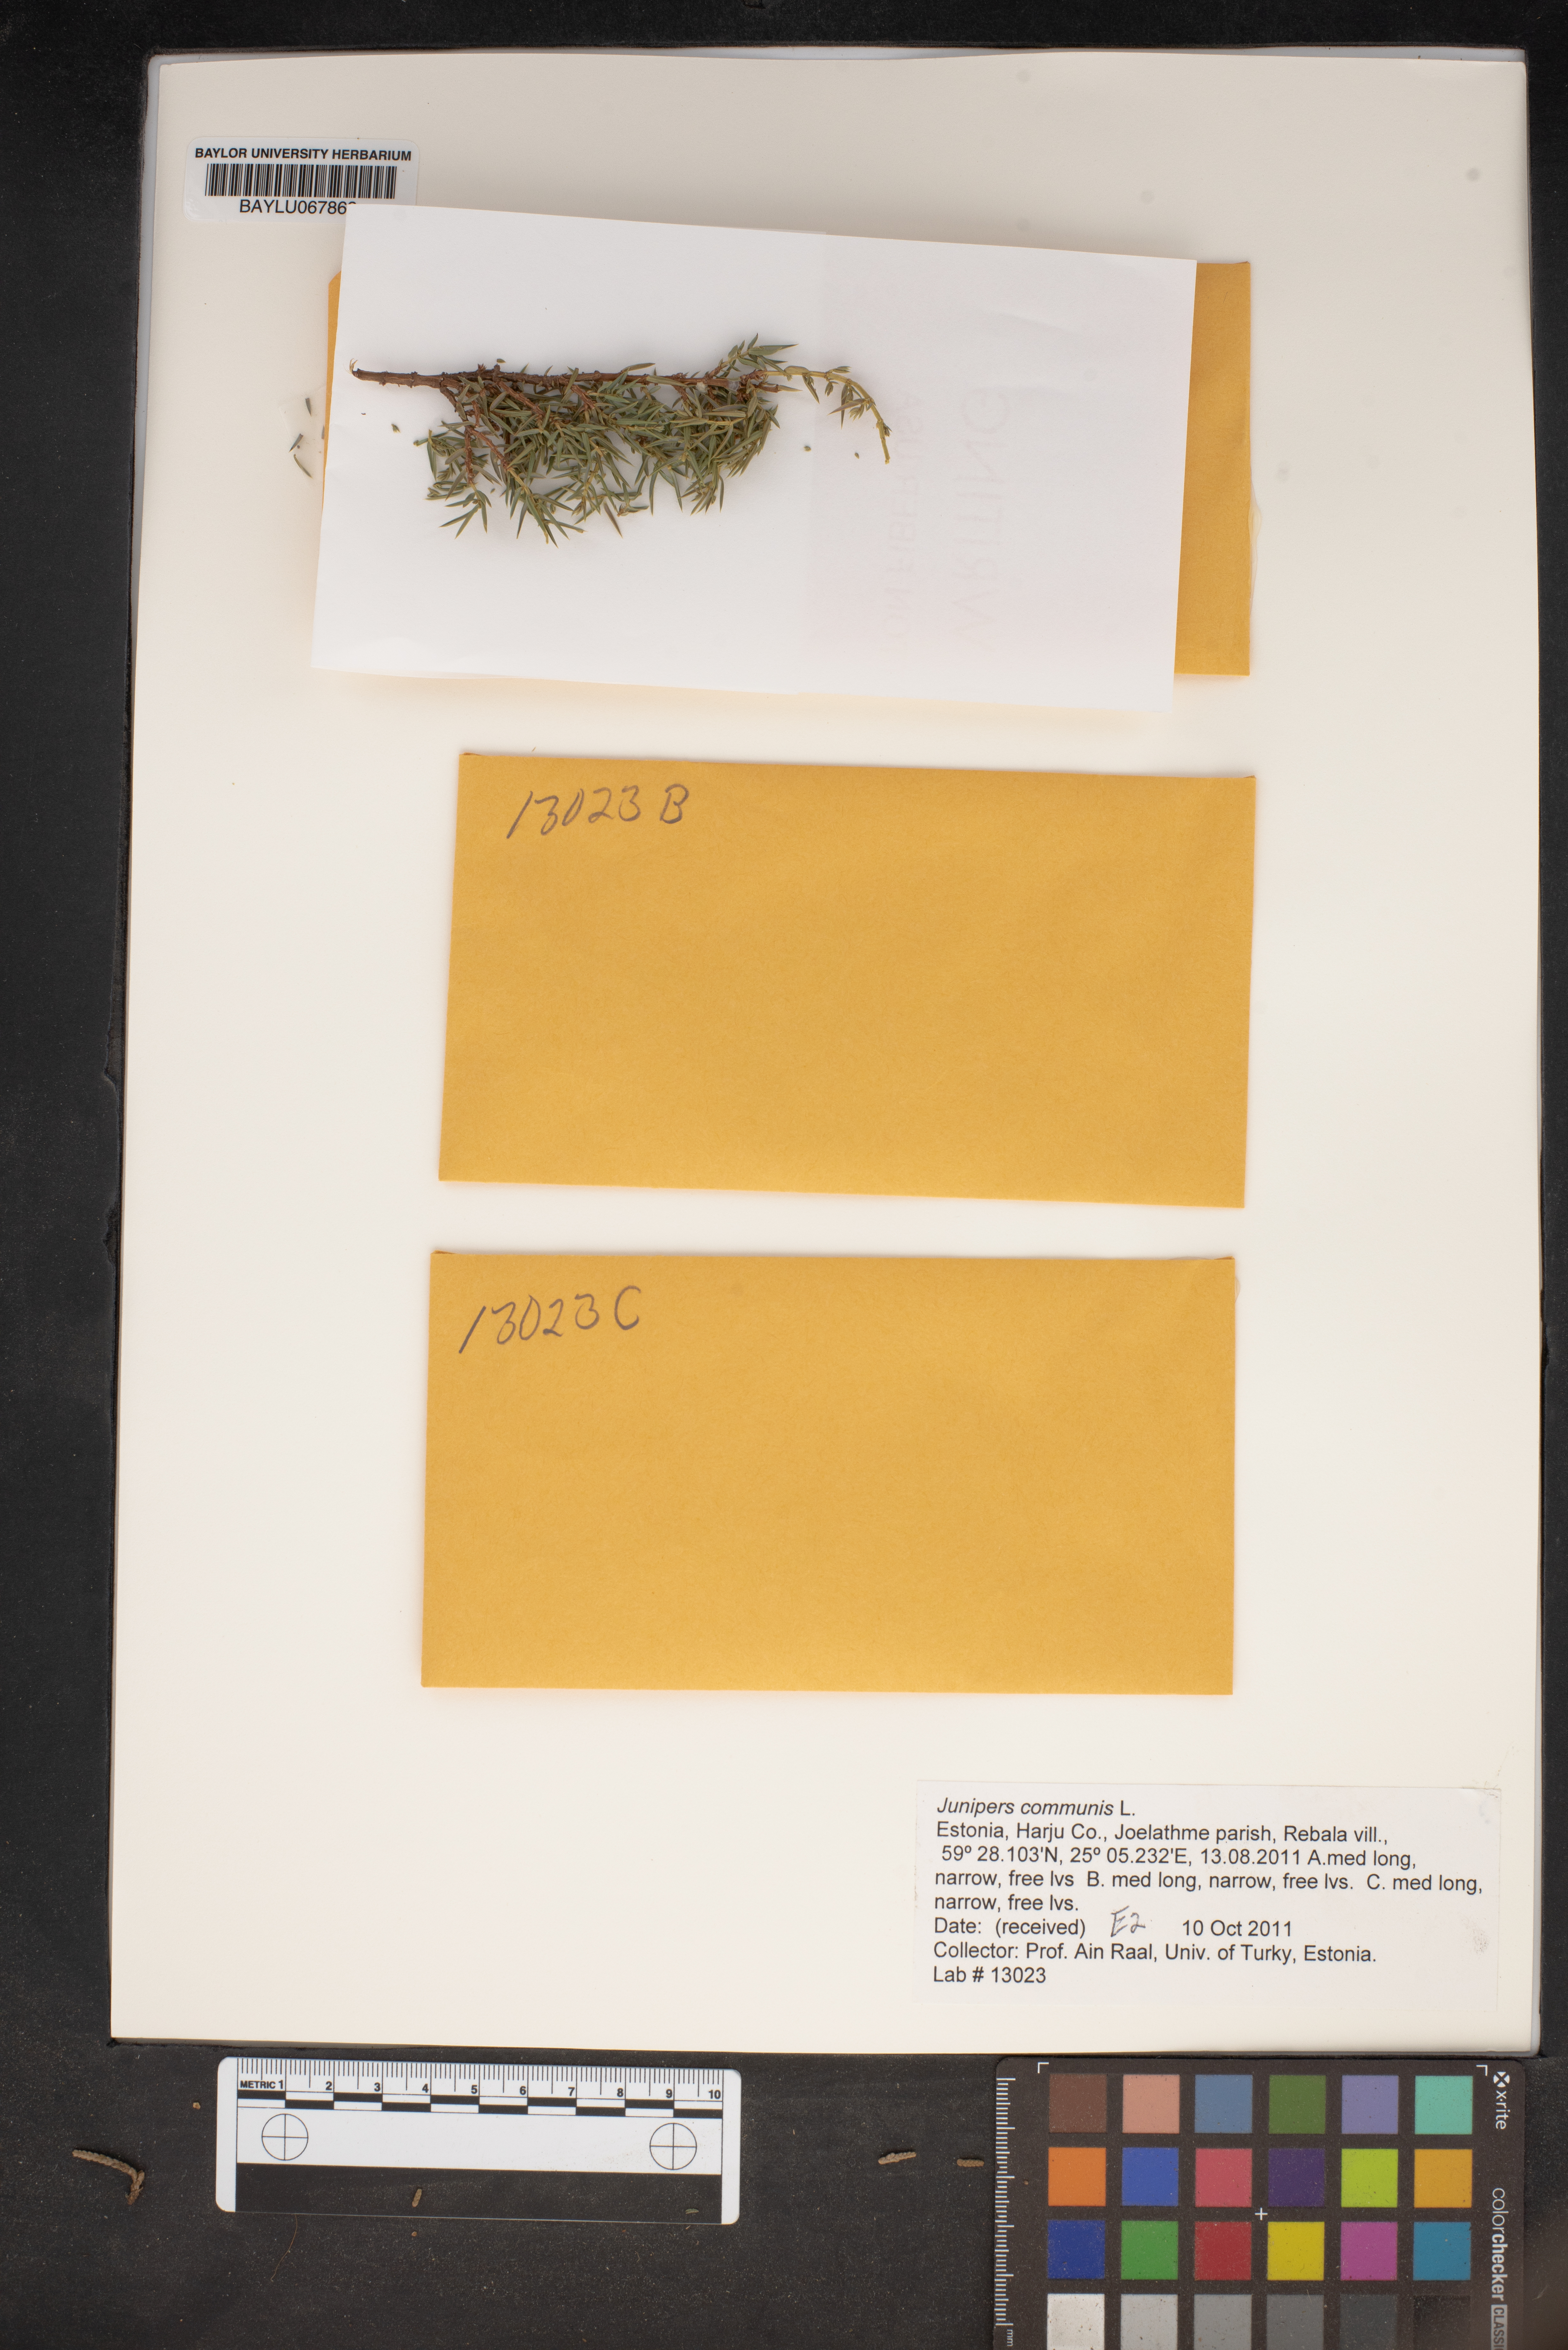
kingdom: Plantae
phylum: Tracheophyta
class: Pinopsida
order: Pinales
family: Cupressaceae
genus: Juniperus
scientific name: Juniperus communis
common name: Common juniper
